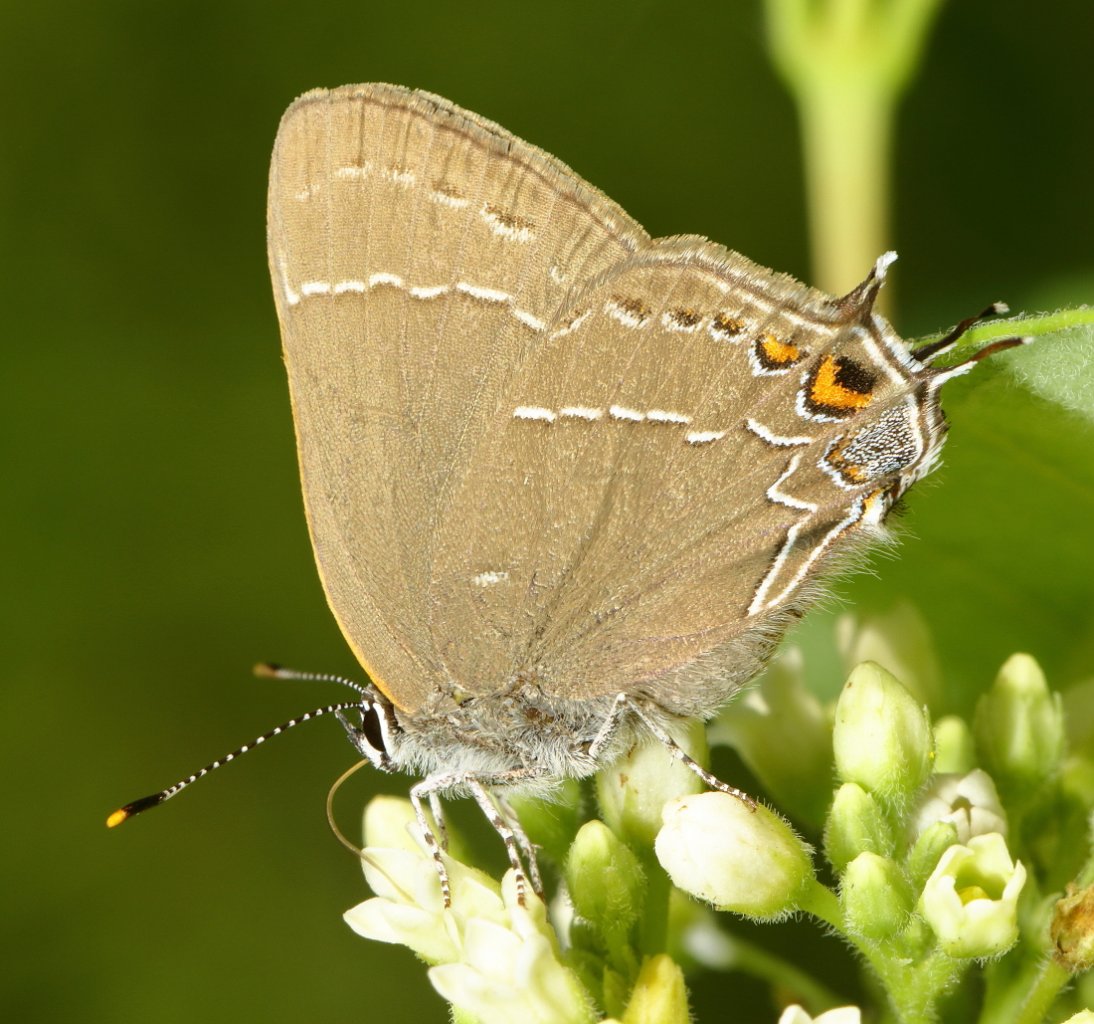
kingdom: Animalia
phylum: Arthropoda
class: Insecta
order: Lepidoptera
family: Lycaenidae
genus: Fixsenia
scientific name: Fixsenia favonius
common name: Oak Hairstreak
